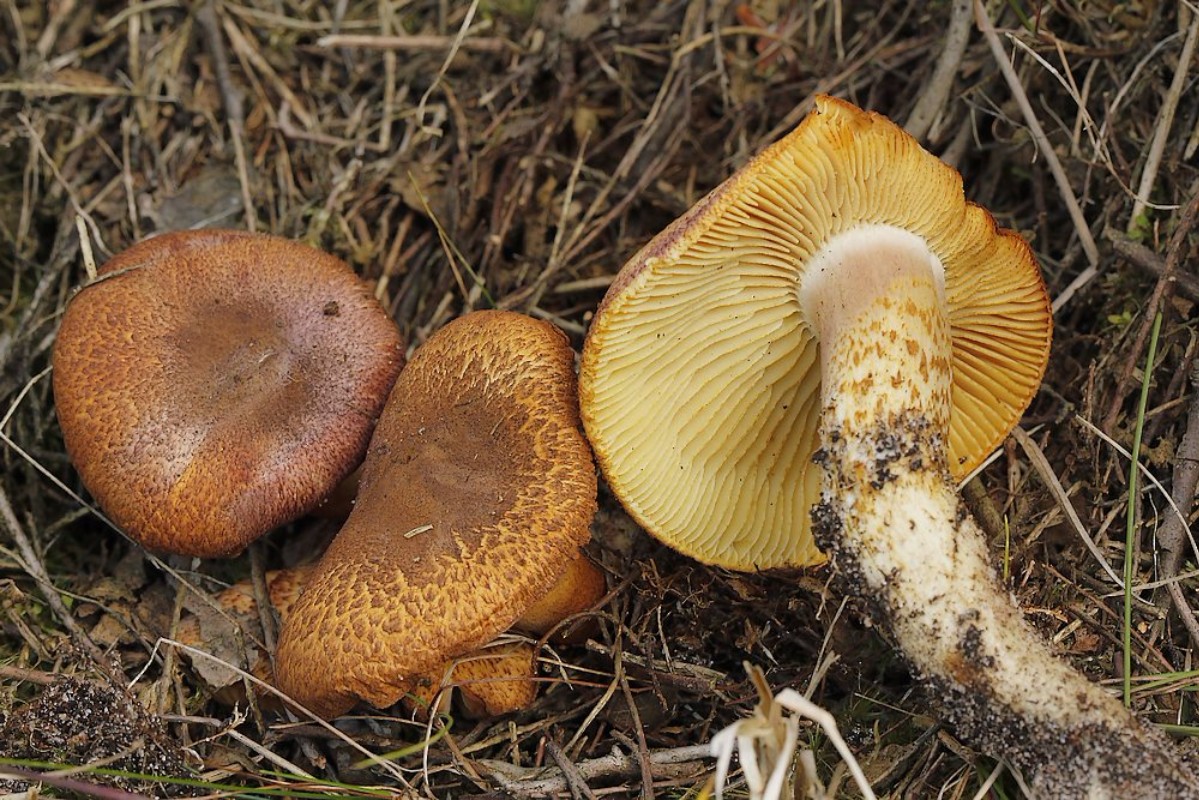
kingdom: Fungi
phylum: Basidiomycota
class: Agaricomycetes
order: Agaricales
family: Tricholomataceae
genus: Tricholomopsis
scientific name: Tricholomopsis rutilans
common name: purpur-væbnerhat
